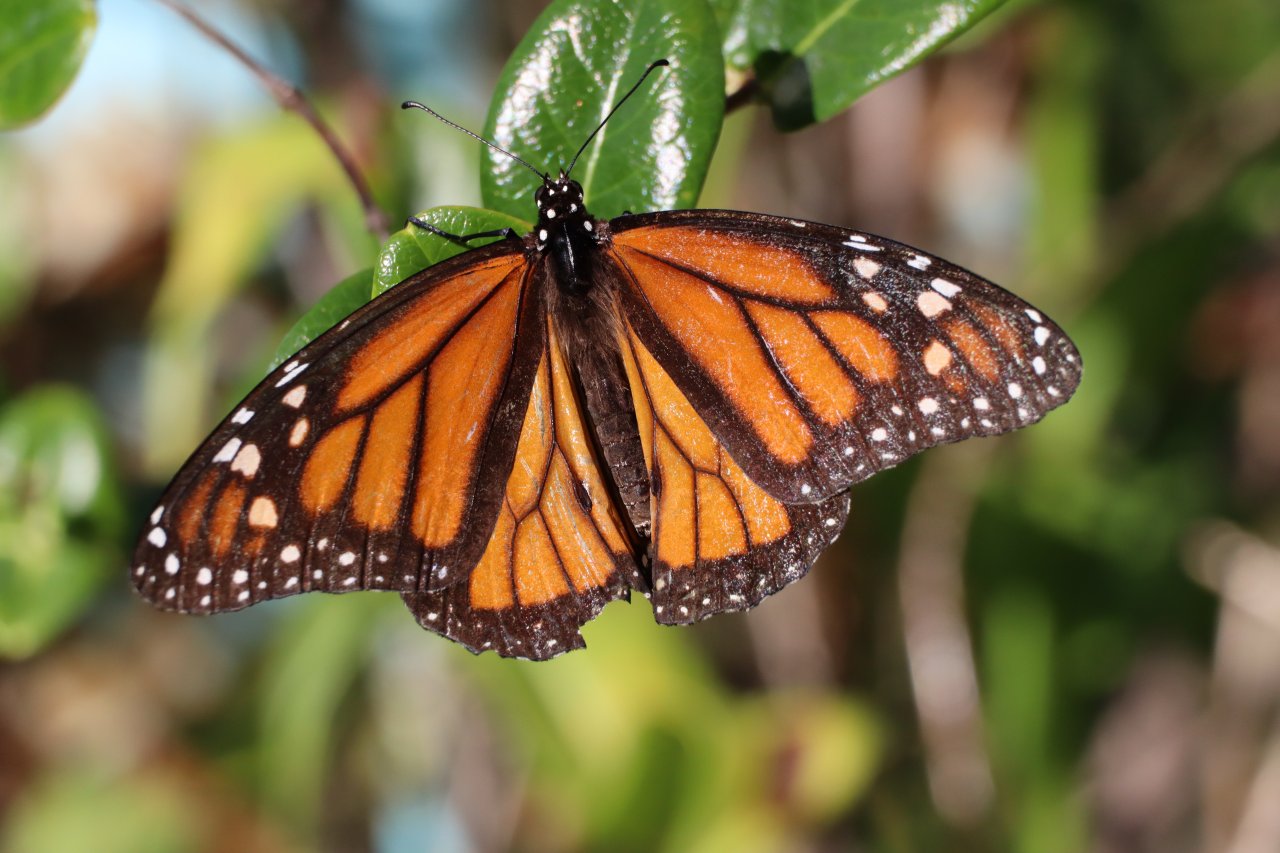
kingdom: Animalia
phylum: Arthropoda
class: Insecta
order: Lepidoptera
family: Nymphalidae
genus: Danaus
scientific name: Danaus plexippus
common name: Monarch
